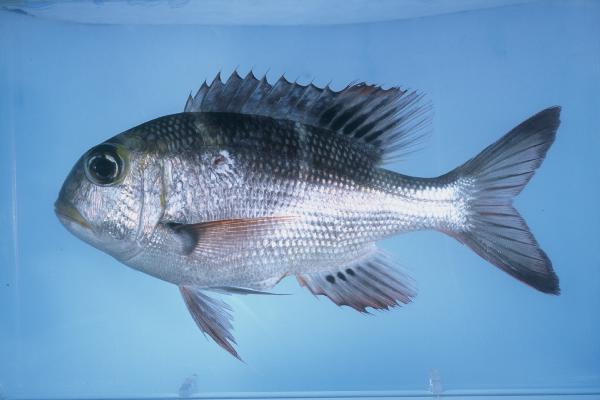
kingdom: Animalia
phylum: Chordata
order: Perciformes
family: Lethrinidae
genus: Monotaxis
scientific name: Monotaxis grandoculis
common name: Bigeye emperor
